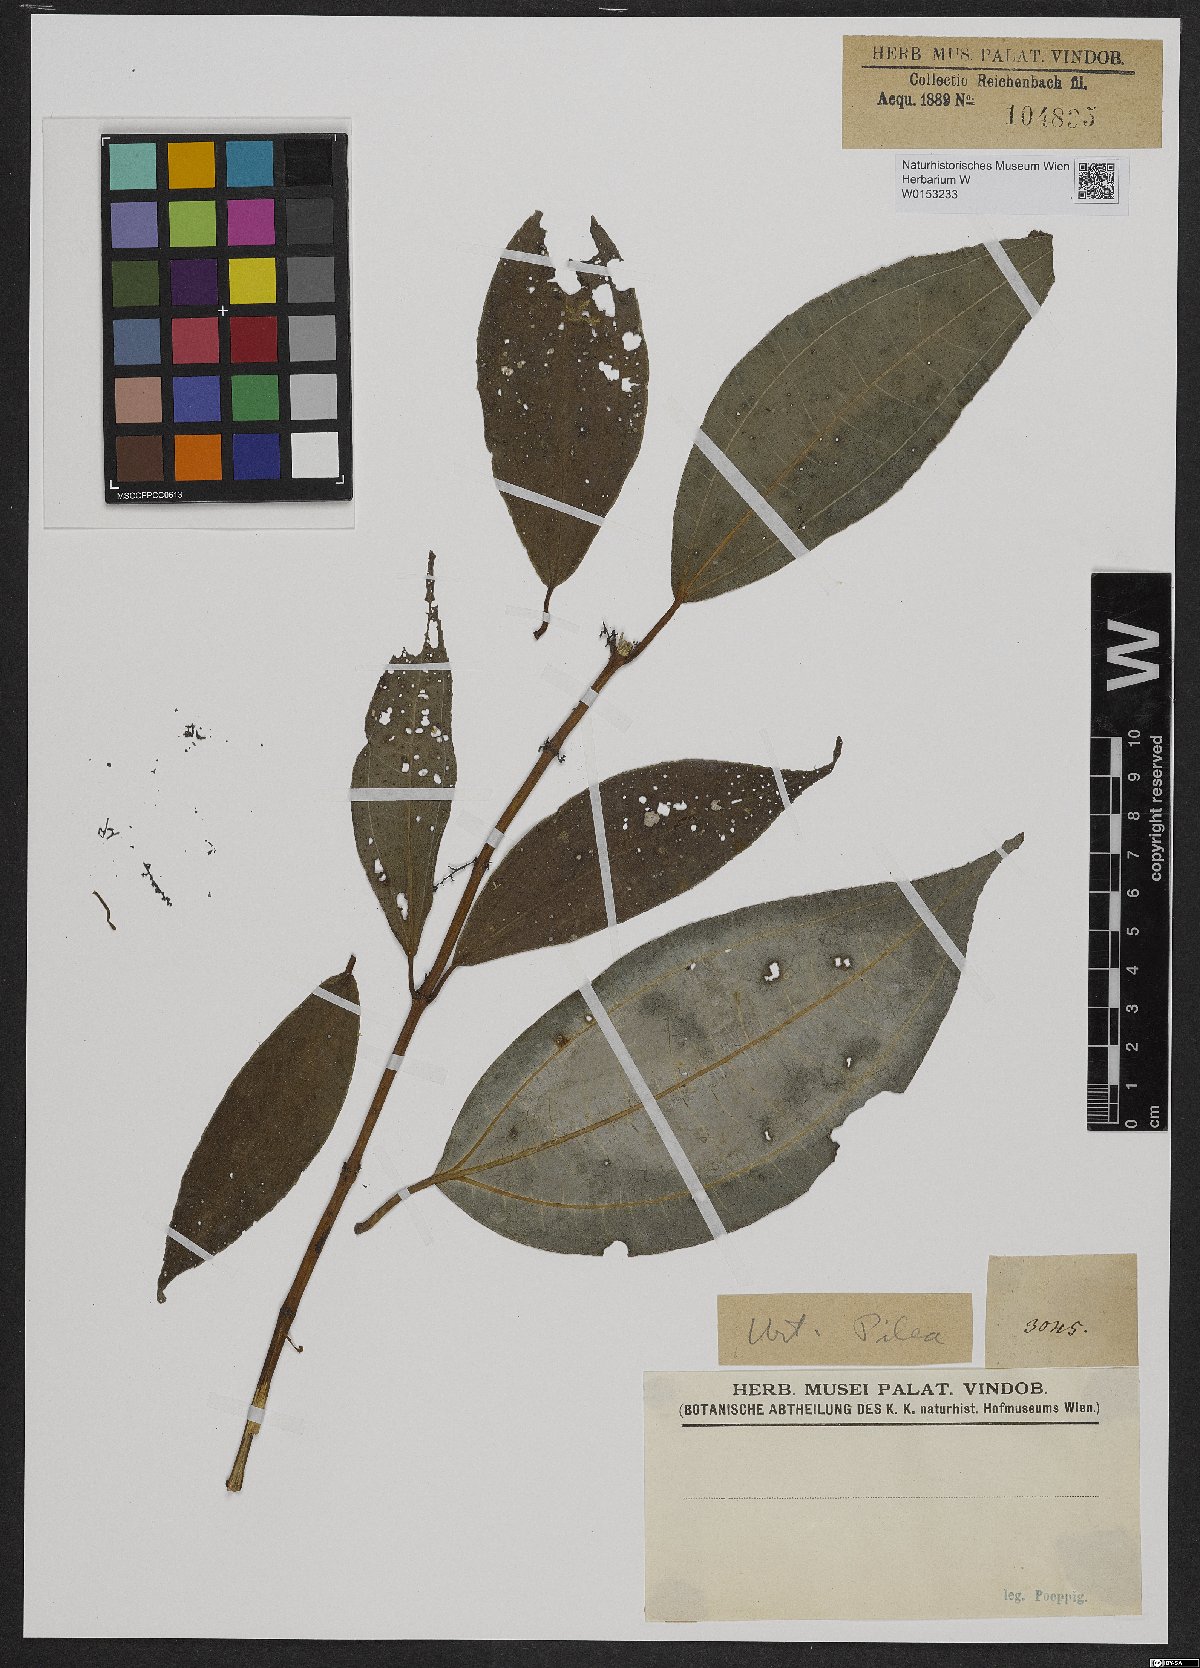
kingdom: Plantae
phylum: Tracheophyta
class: Magnoliopsida
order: Rosales
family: Urticaceae
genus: Pilea
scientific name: Pilea
